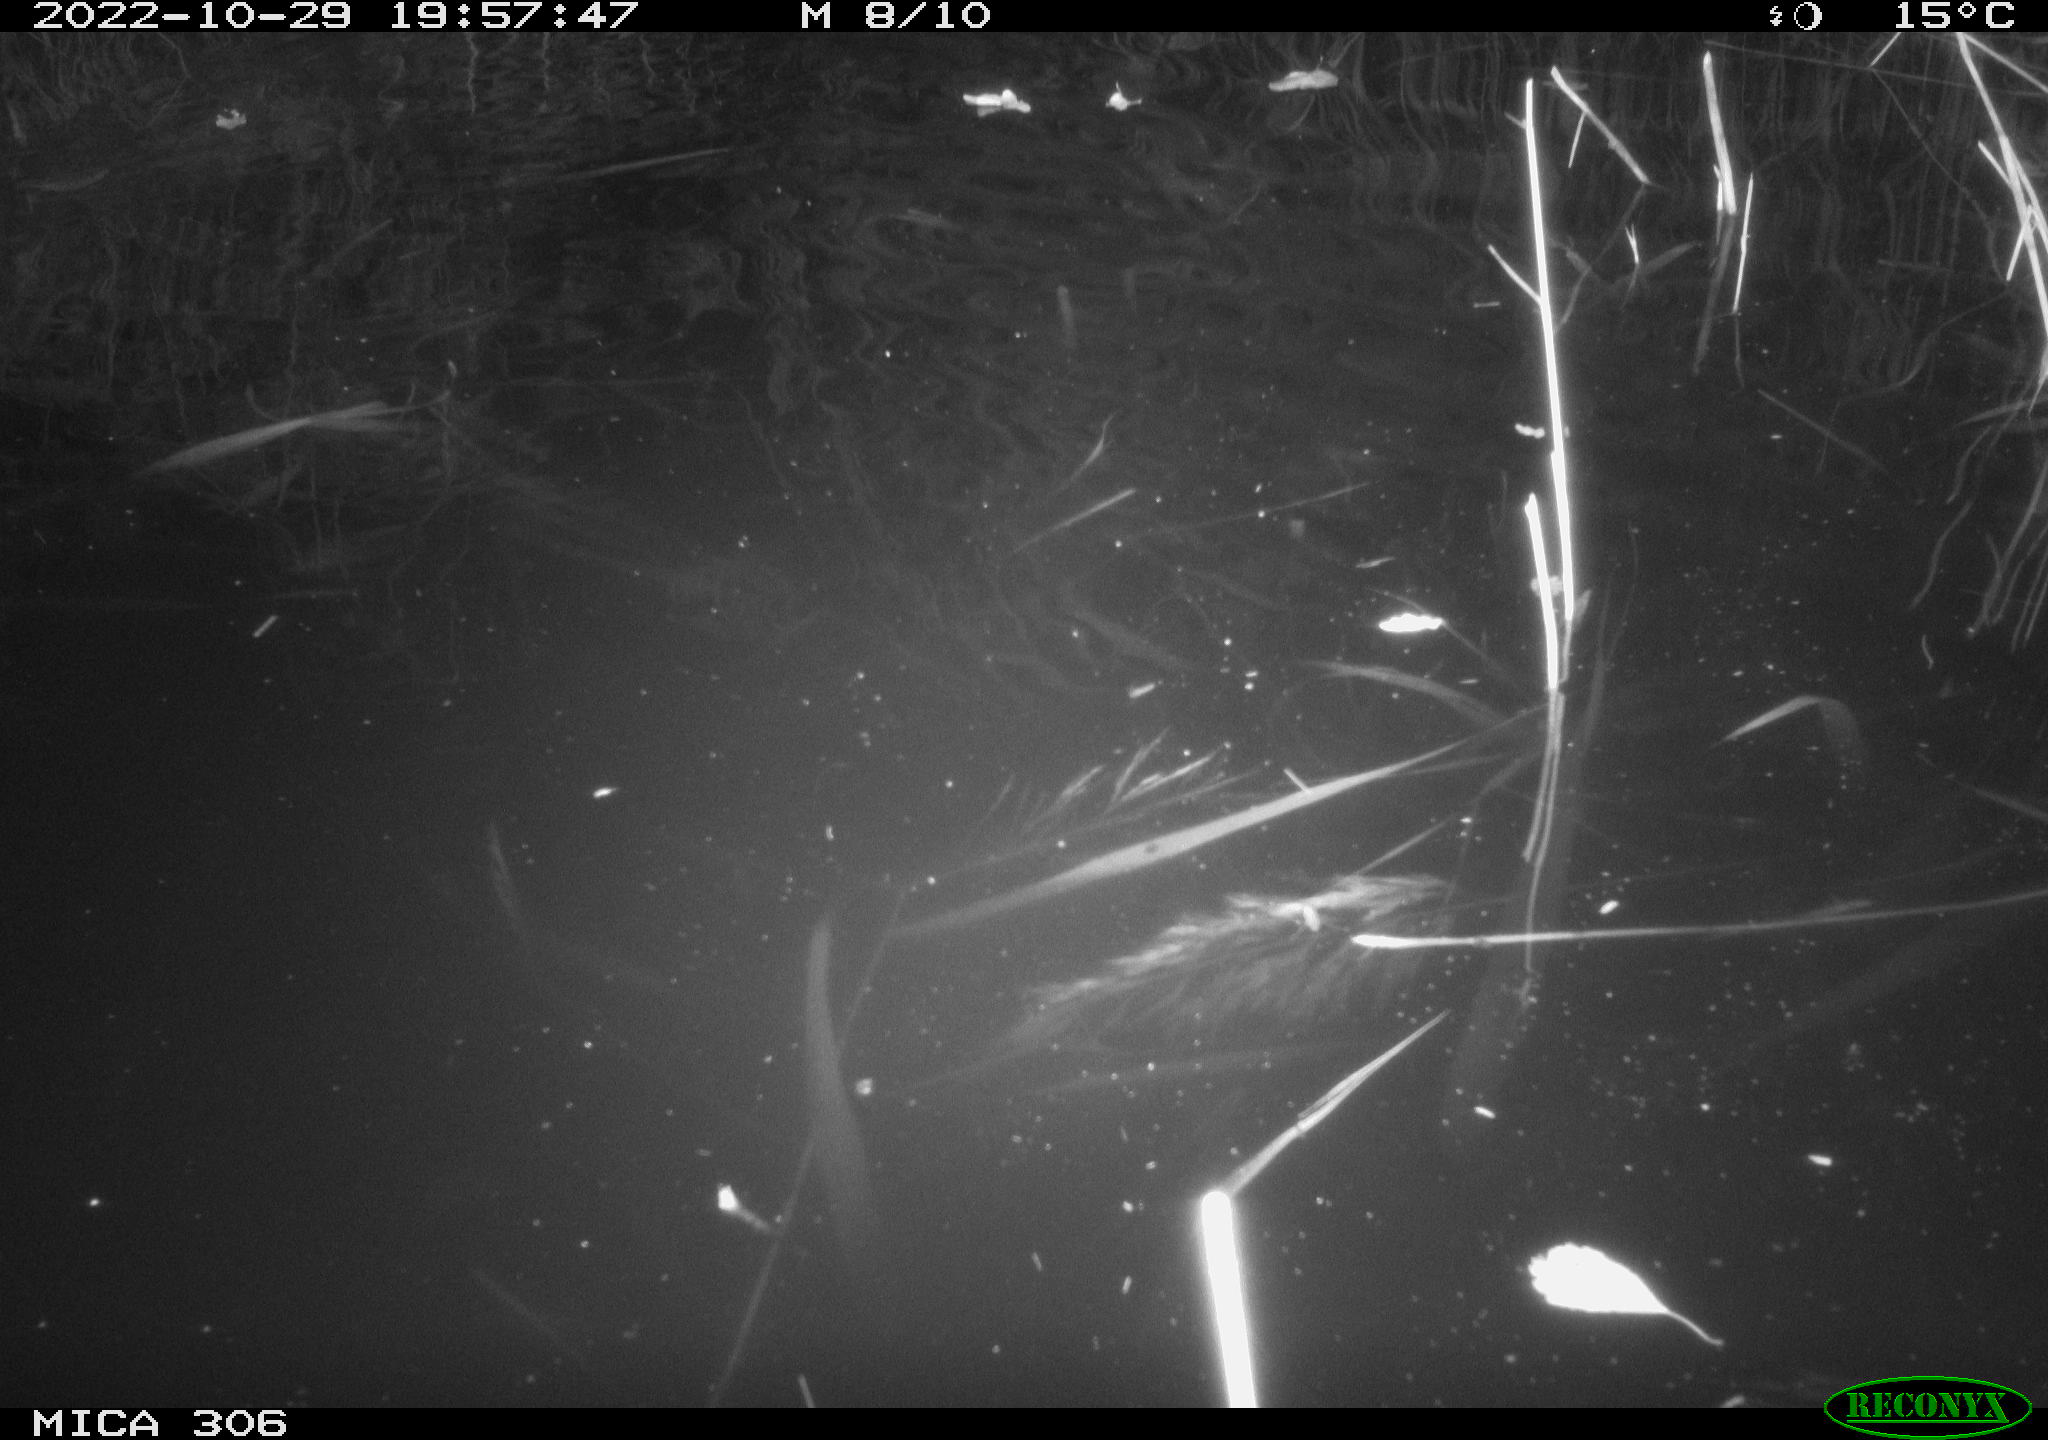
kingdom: Animalia
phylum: Chordata
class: Mammalia
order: Rodentia
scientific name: Rodentia
